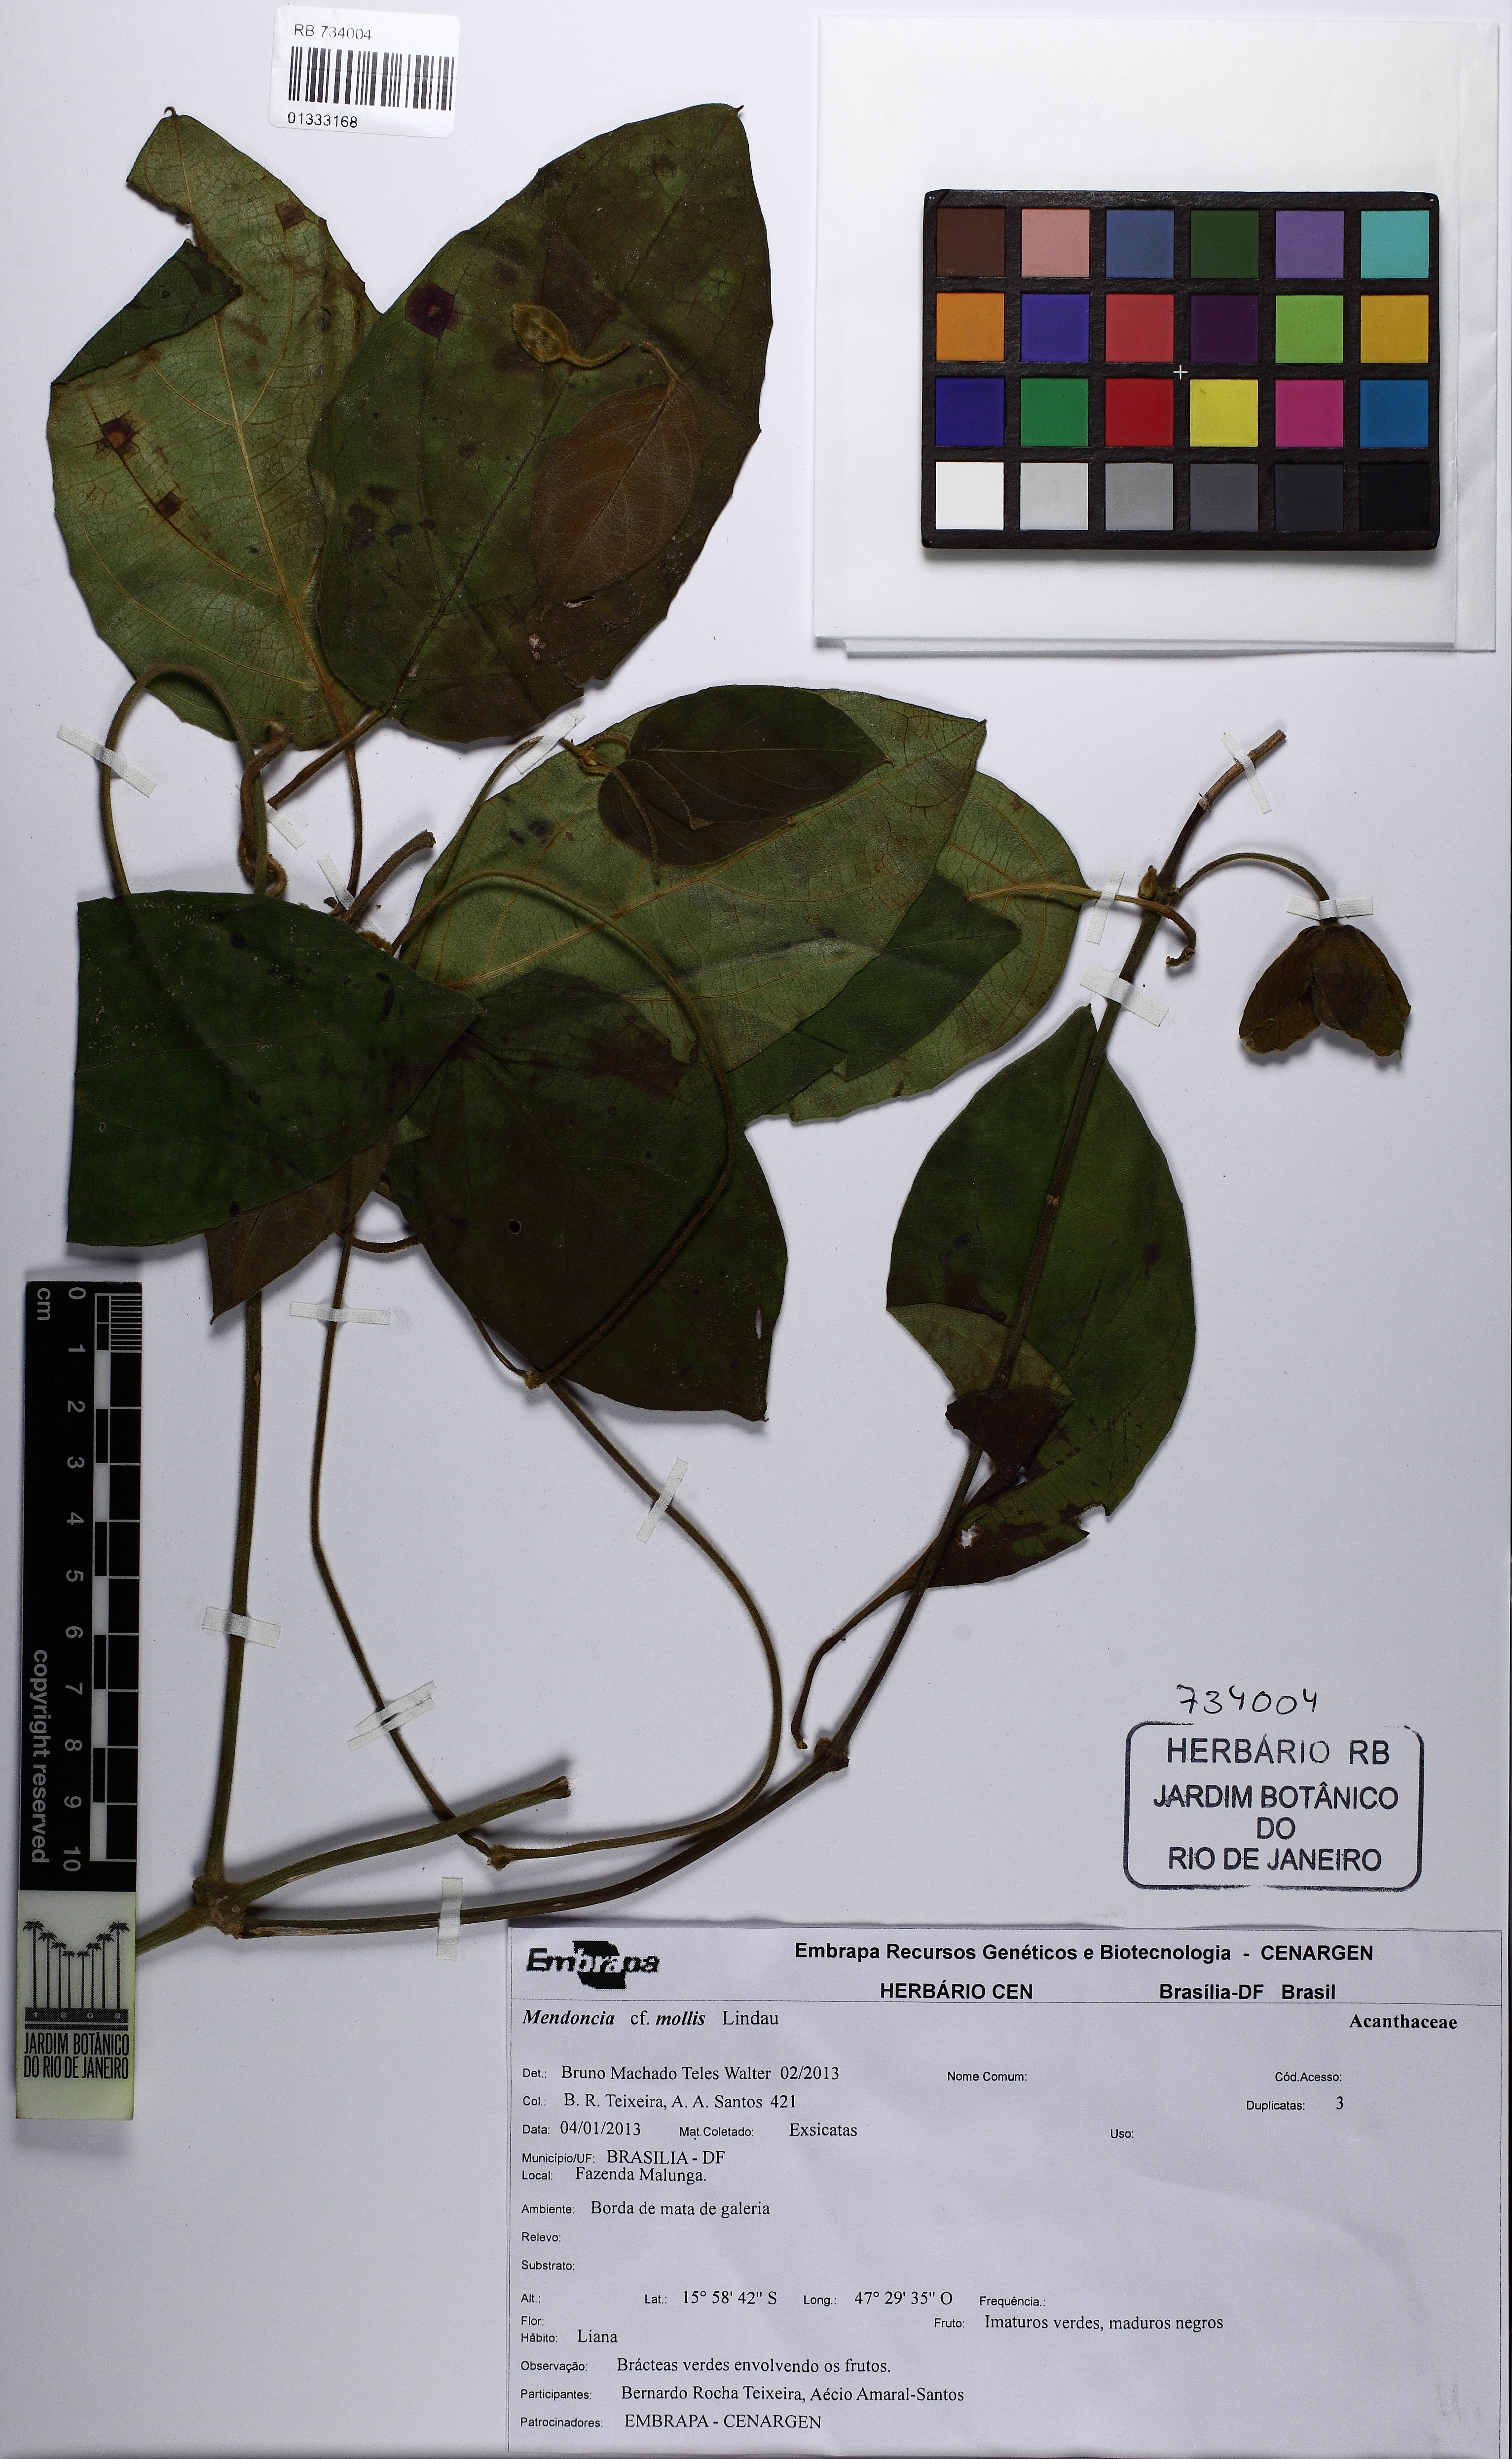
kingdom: Plantae
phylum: Tracheophyta
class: Magnoliopsida
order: Lamiales
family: Acanthaceae
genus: Mendoncia
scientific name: Mendoncia mollis
